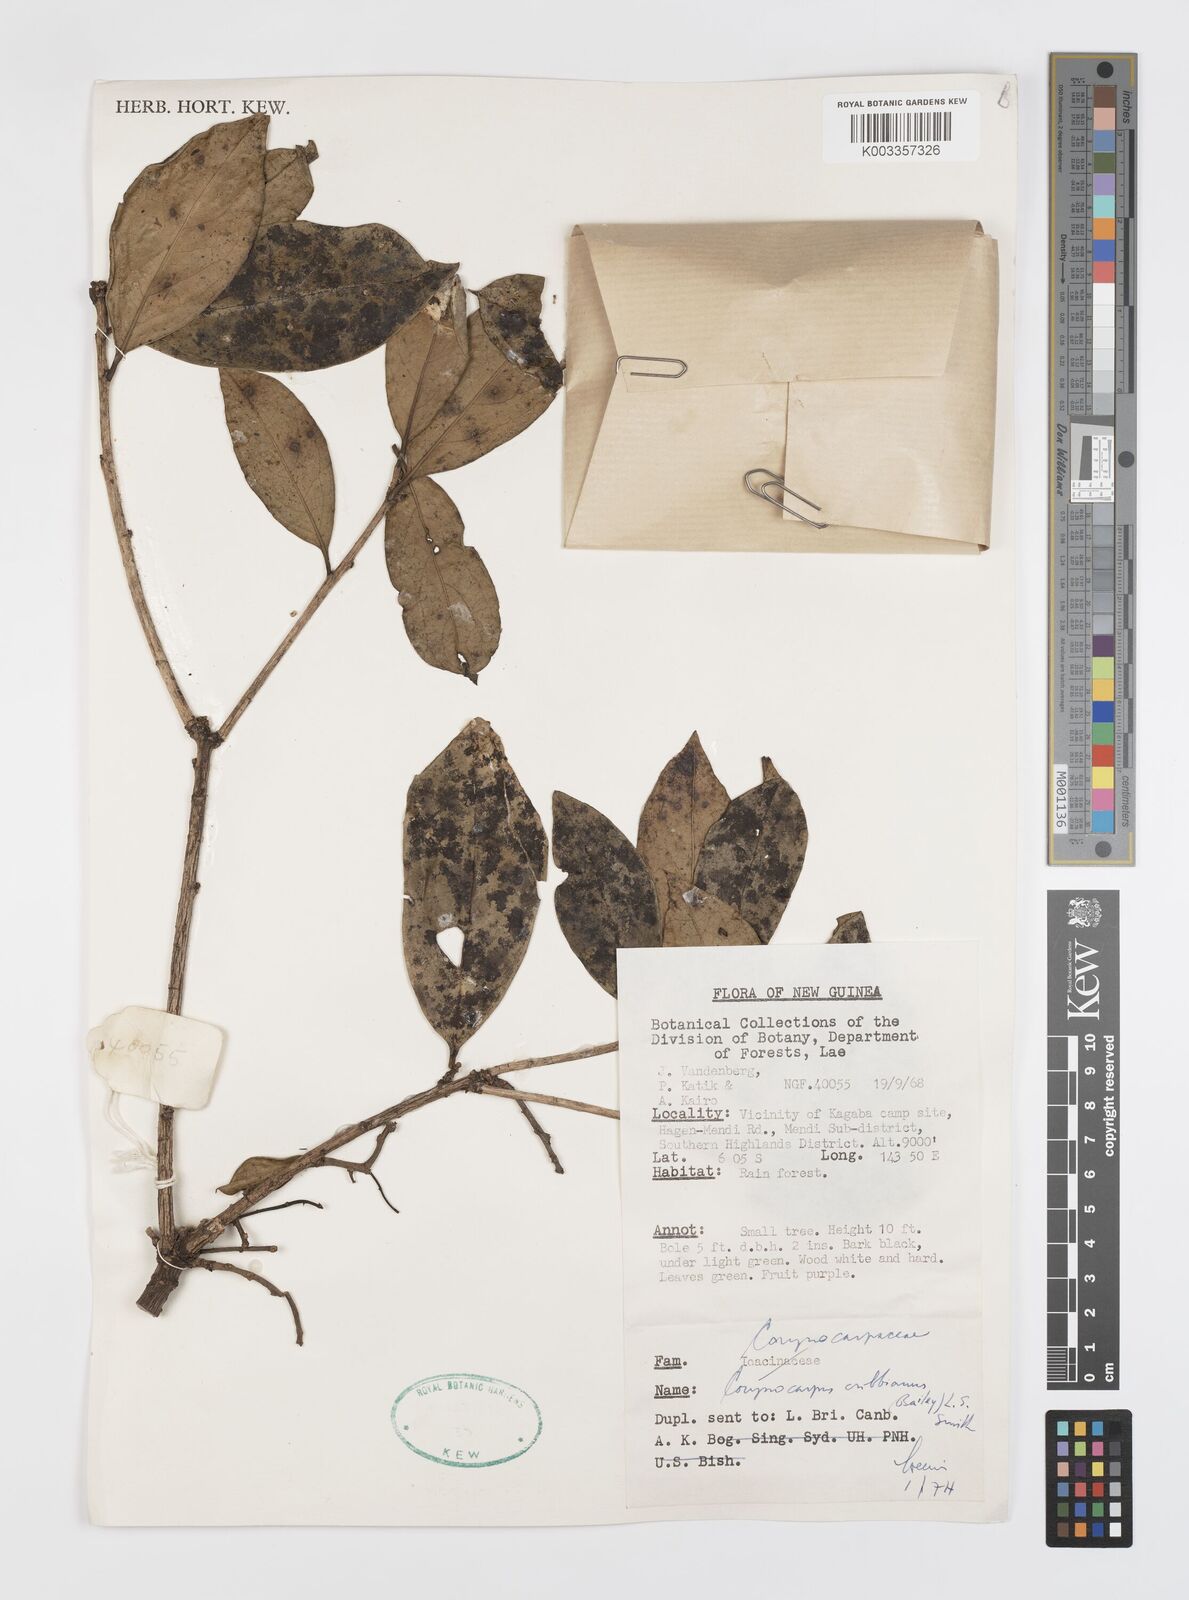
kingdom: Plantae
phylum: Tracheophyta
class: Magnoliopsida
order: Cucurbitales
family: Corynocarpaceae
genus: Corynocarpus
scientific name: Corynocarpus cribbianus
